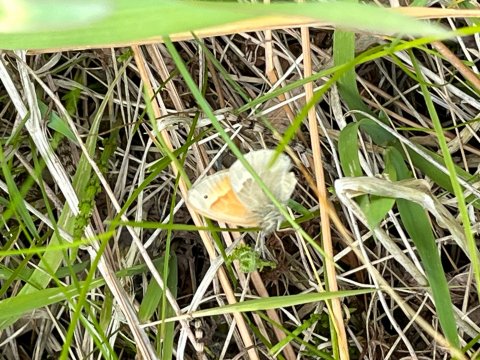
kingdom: Animalia
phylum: Arthropoda
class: Insecta
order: Lepidoptera
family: Nymphalidae
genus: Coenonympha
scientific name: Coenonympha tullia
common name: Large Heath
